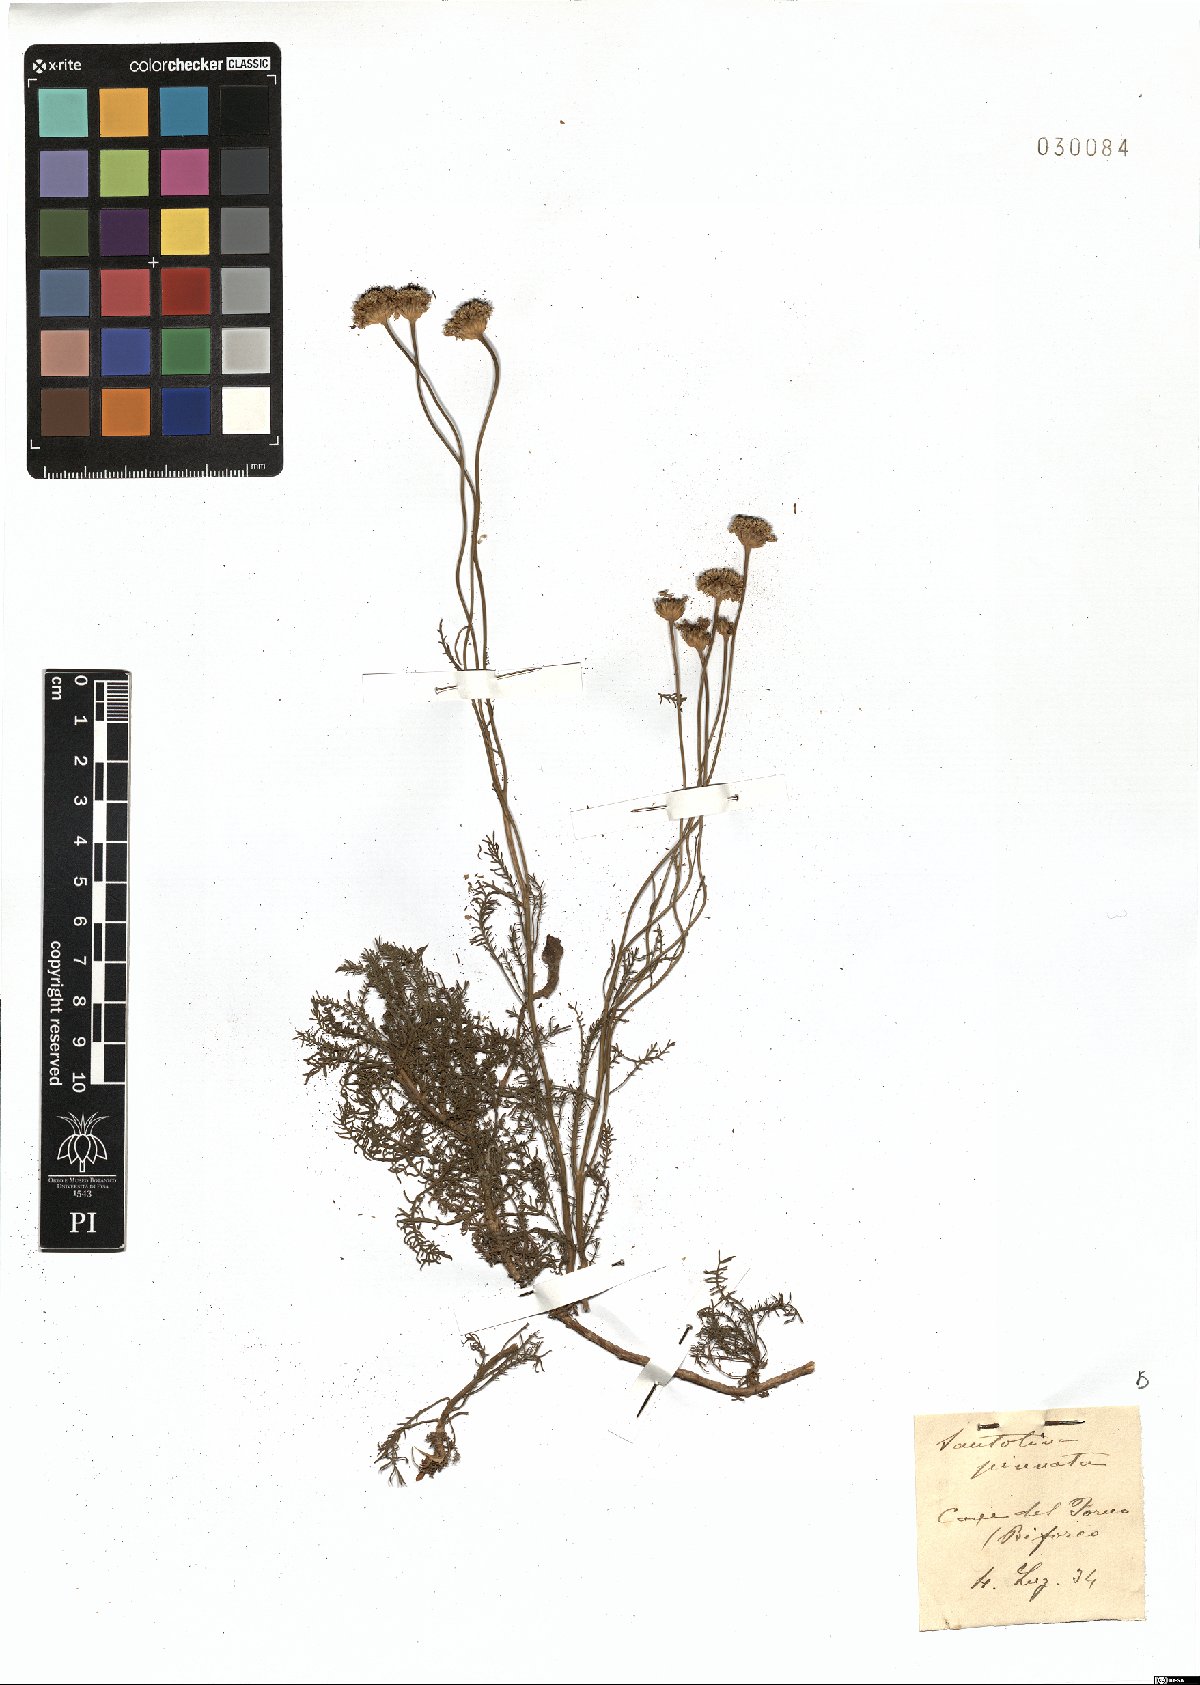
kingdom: Plantae
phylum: Tracheophyta
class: Magnoliopsida
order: Asterales
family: Asteraceae
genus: Santolina
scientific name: Santolina pinnata
